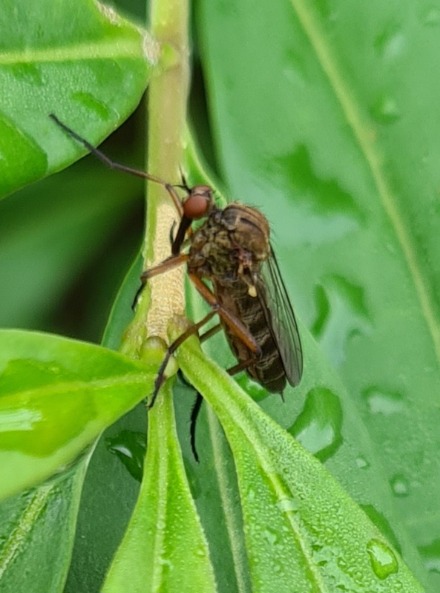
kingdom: Animalia
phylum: Arthropoda
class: Insecta
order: Diptera
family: Empididae
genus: Empis
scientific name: Empis livida
